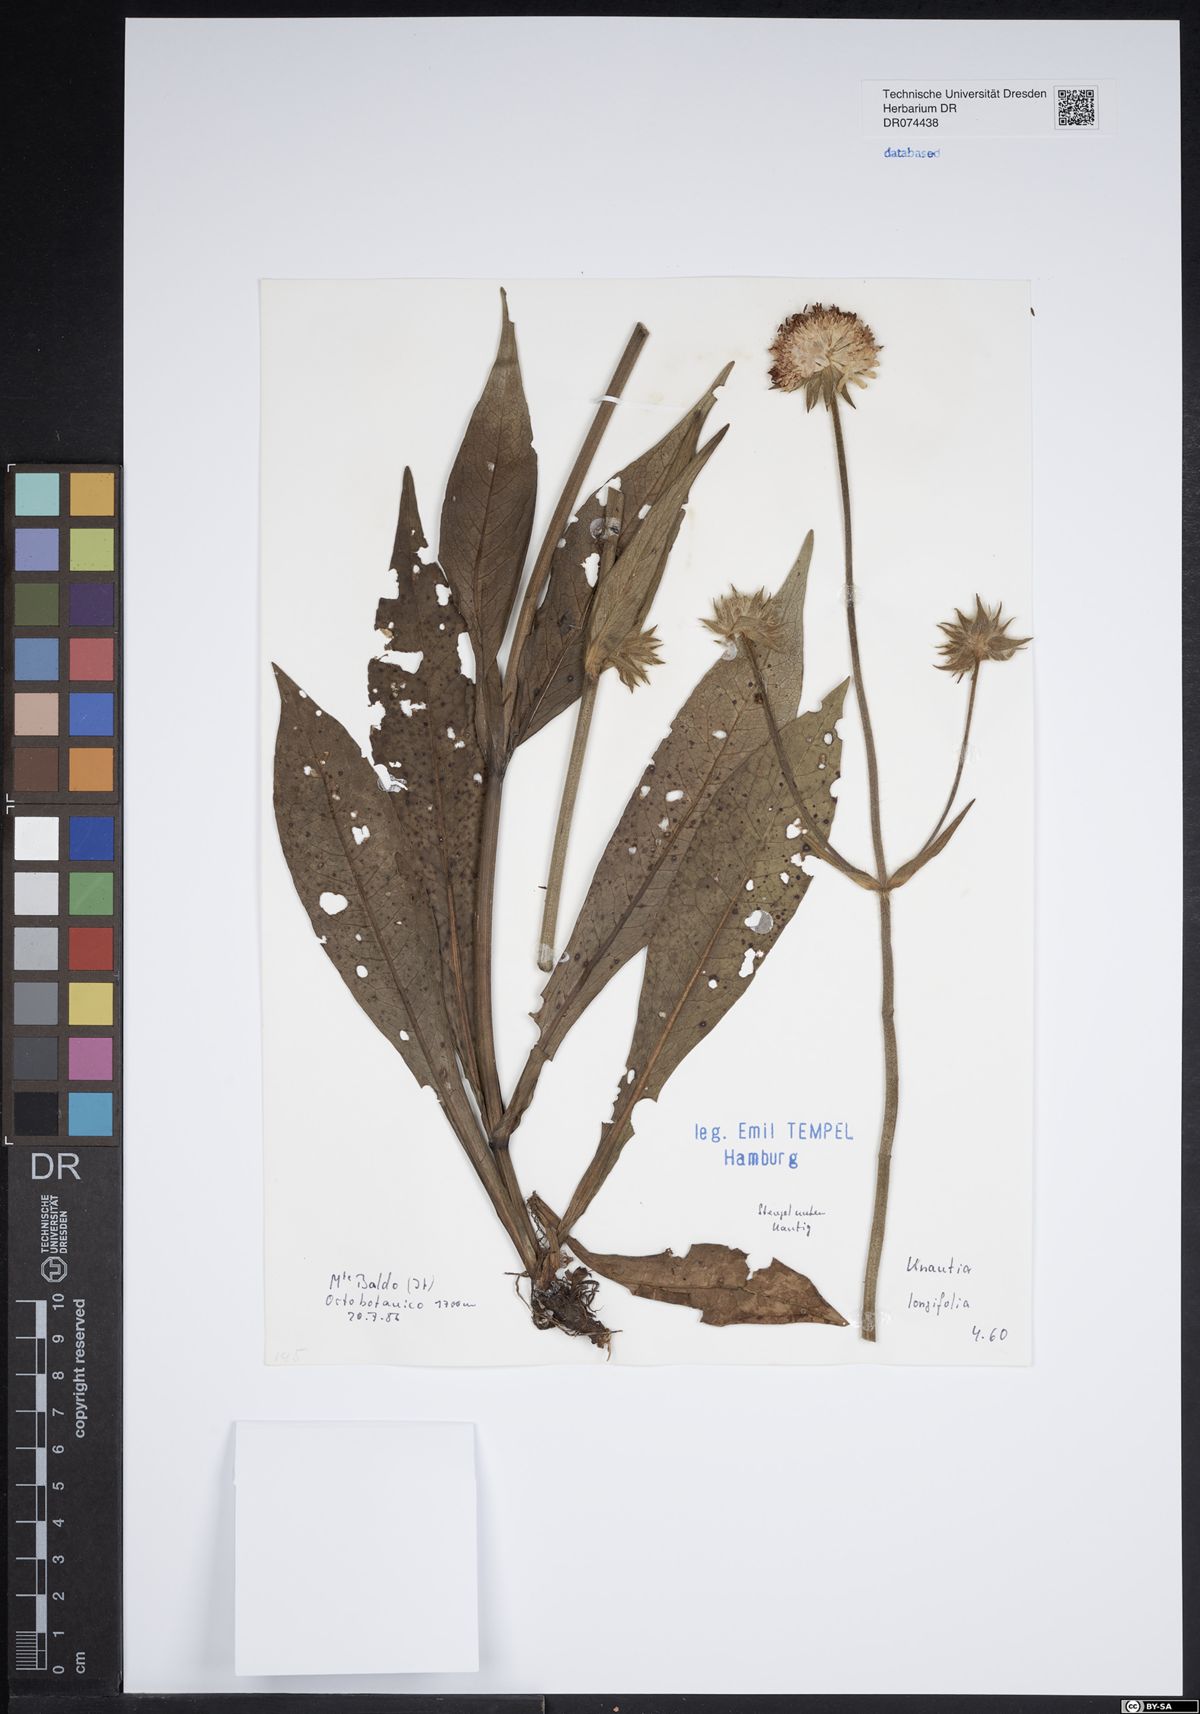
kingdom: Plantae
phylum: Tracheophyta
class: Magnoliopsida
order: Dipsacales
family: Caprifoliaceae
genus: Knautia
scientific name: Knautia longifolia
